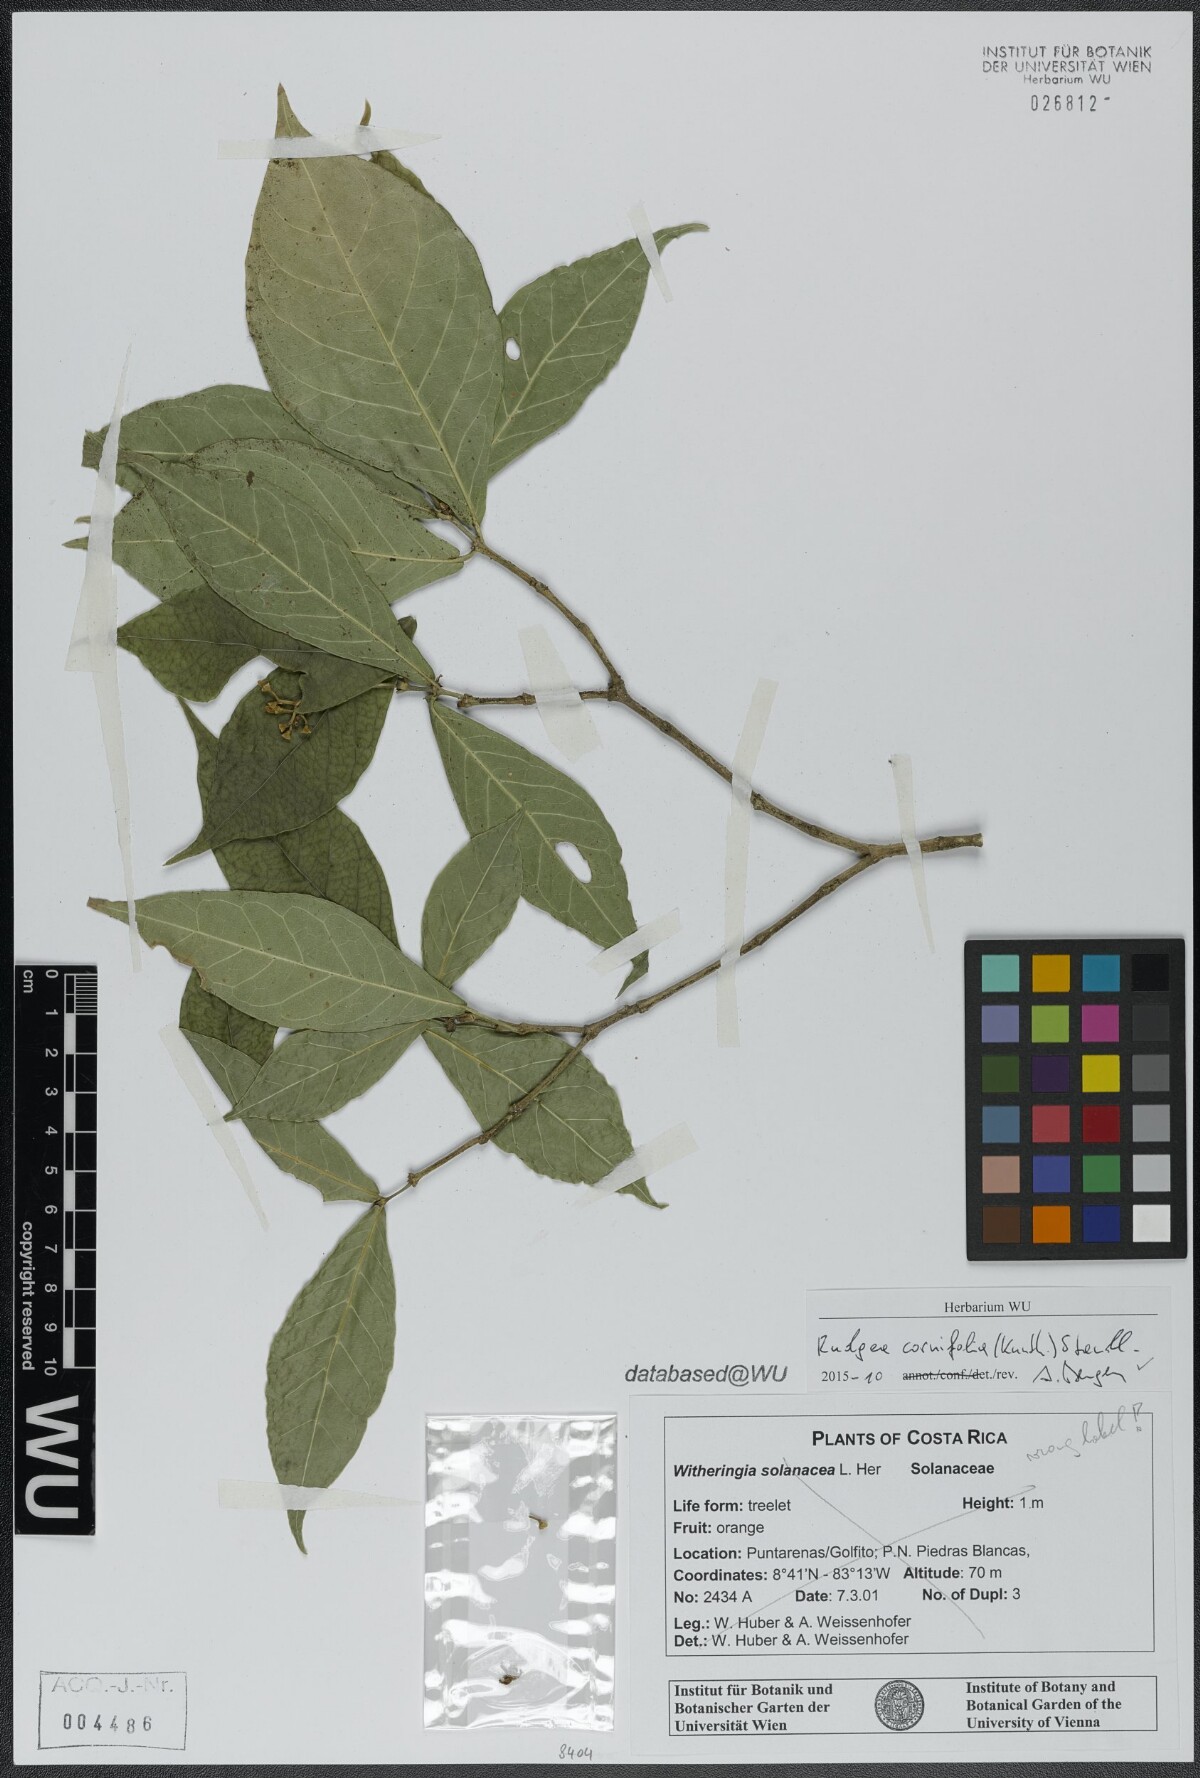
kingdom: Plantae
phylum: Tracheophyta
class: Magnoliopsida
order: Gentianales
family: Rubiaceae
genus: Rudgea
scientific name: Rudgea cornifolia
